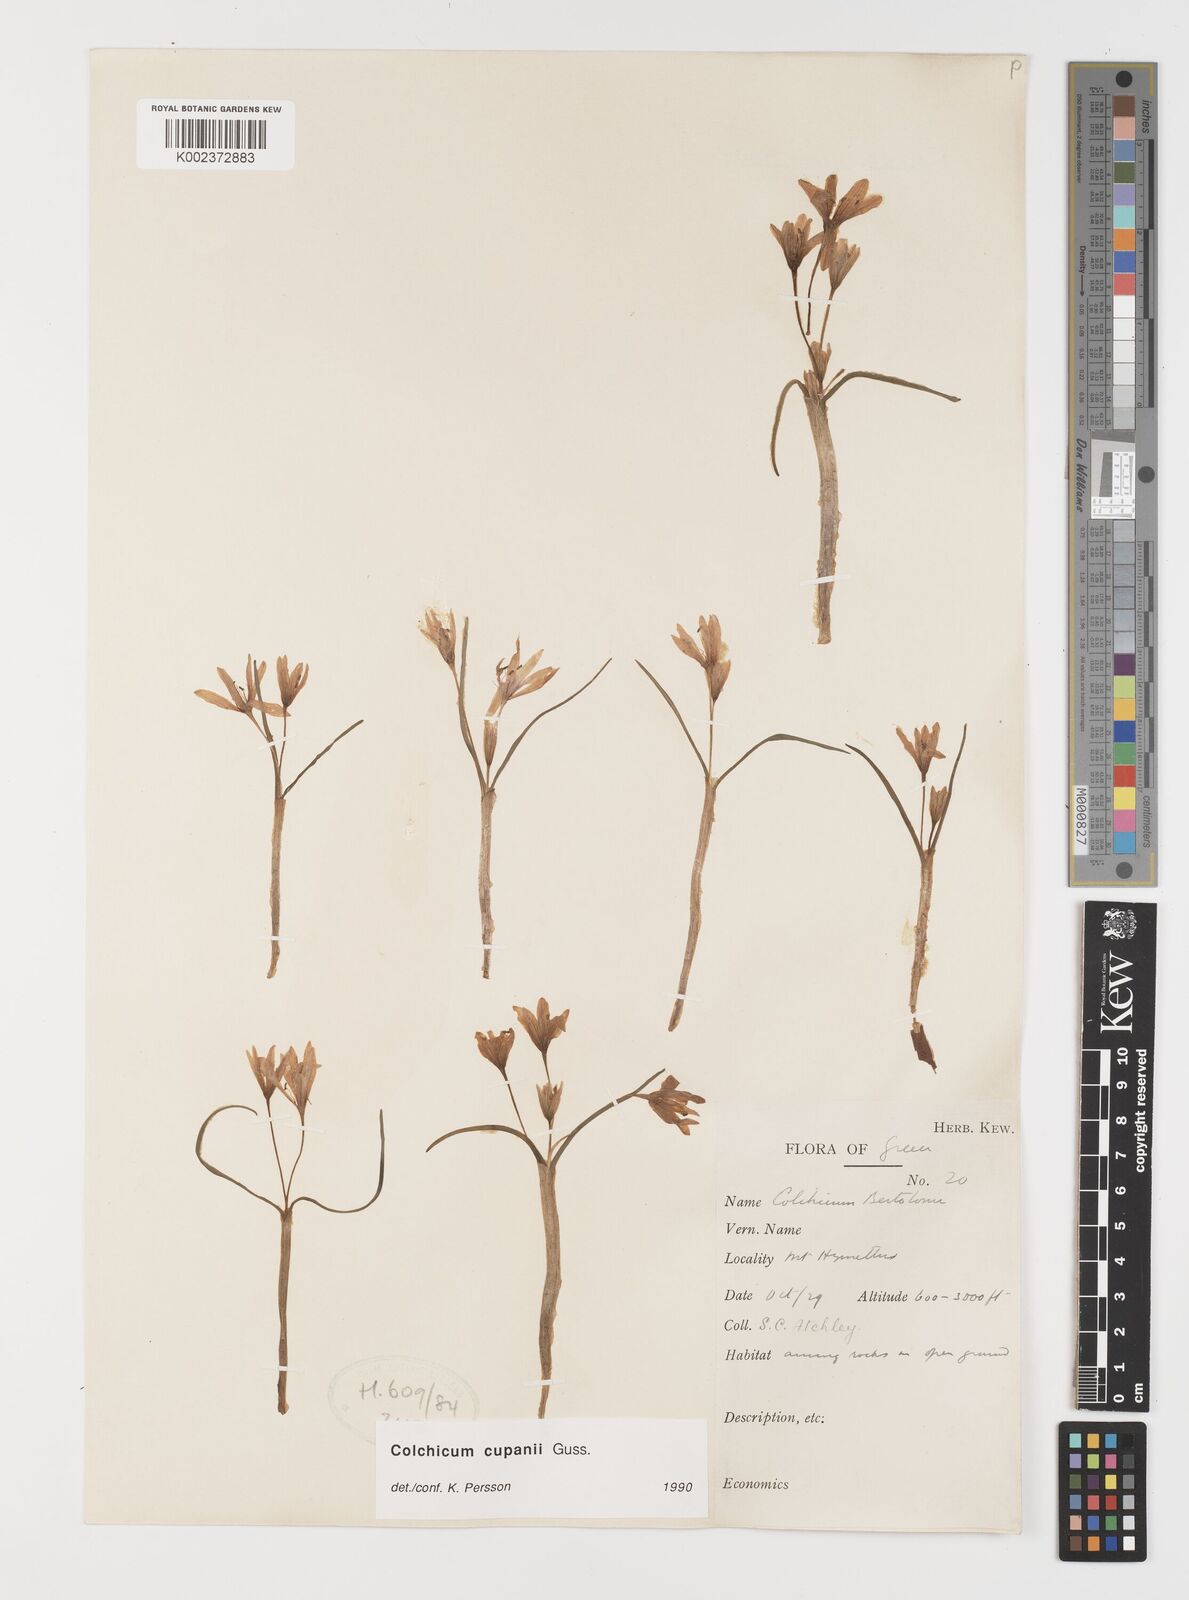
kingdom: Plantae
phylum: Tracheophyta
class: Liliopsida
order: Liliales
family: Colchicaceae
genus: Colchicum
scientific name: Colchicum cupanii
